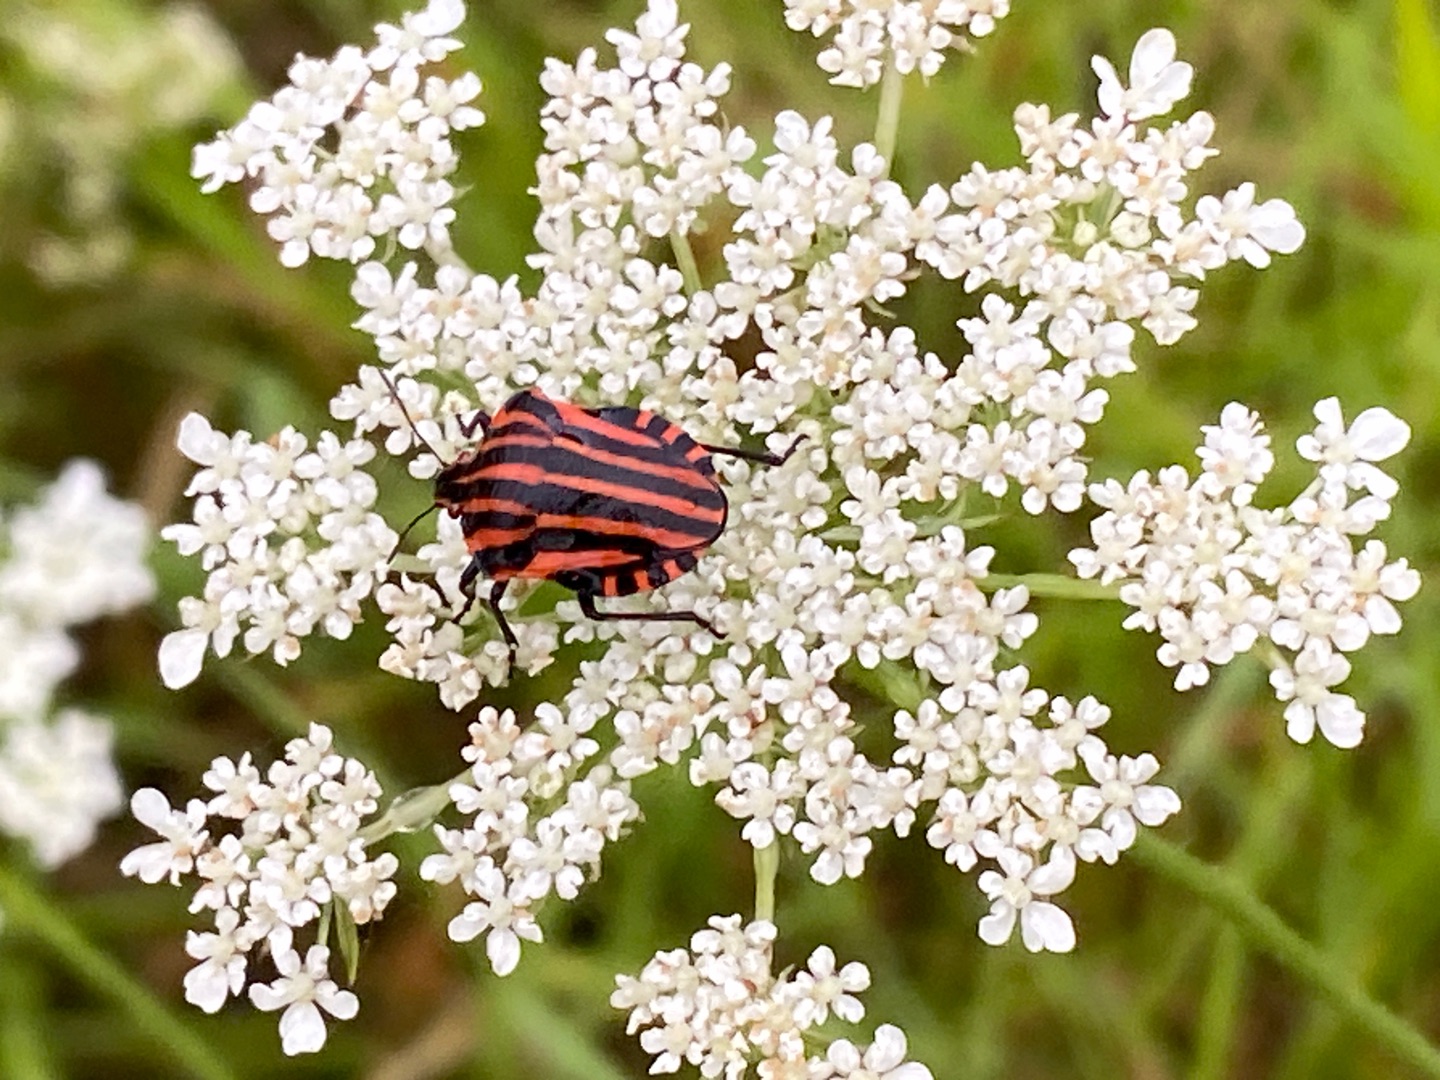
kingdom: Animalia
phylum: Arthropoda
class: Insecta
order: Hemiptera
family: Pentatomidae
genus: Graphosoma
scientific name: Graphosoma italicum
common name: Stribetæge
